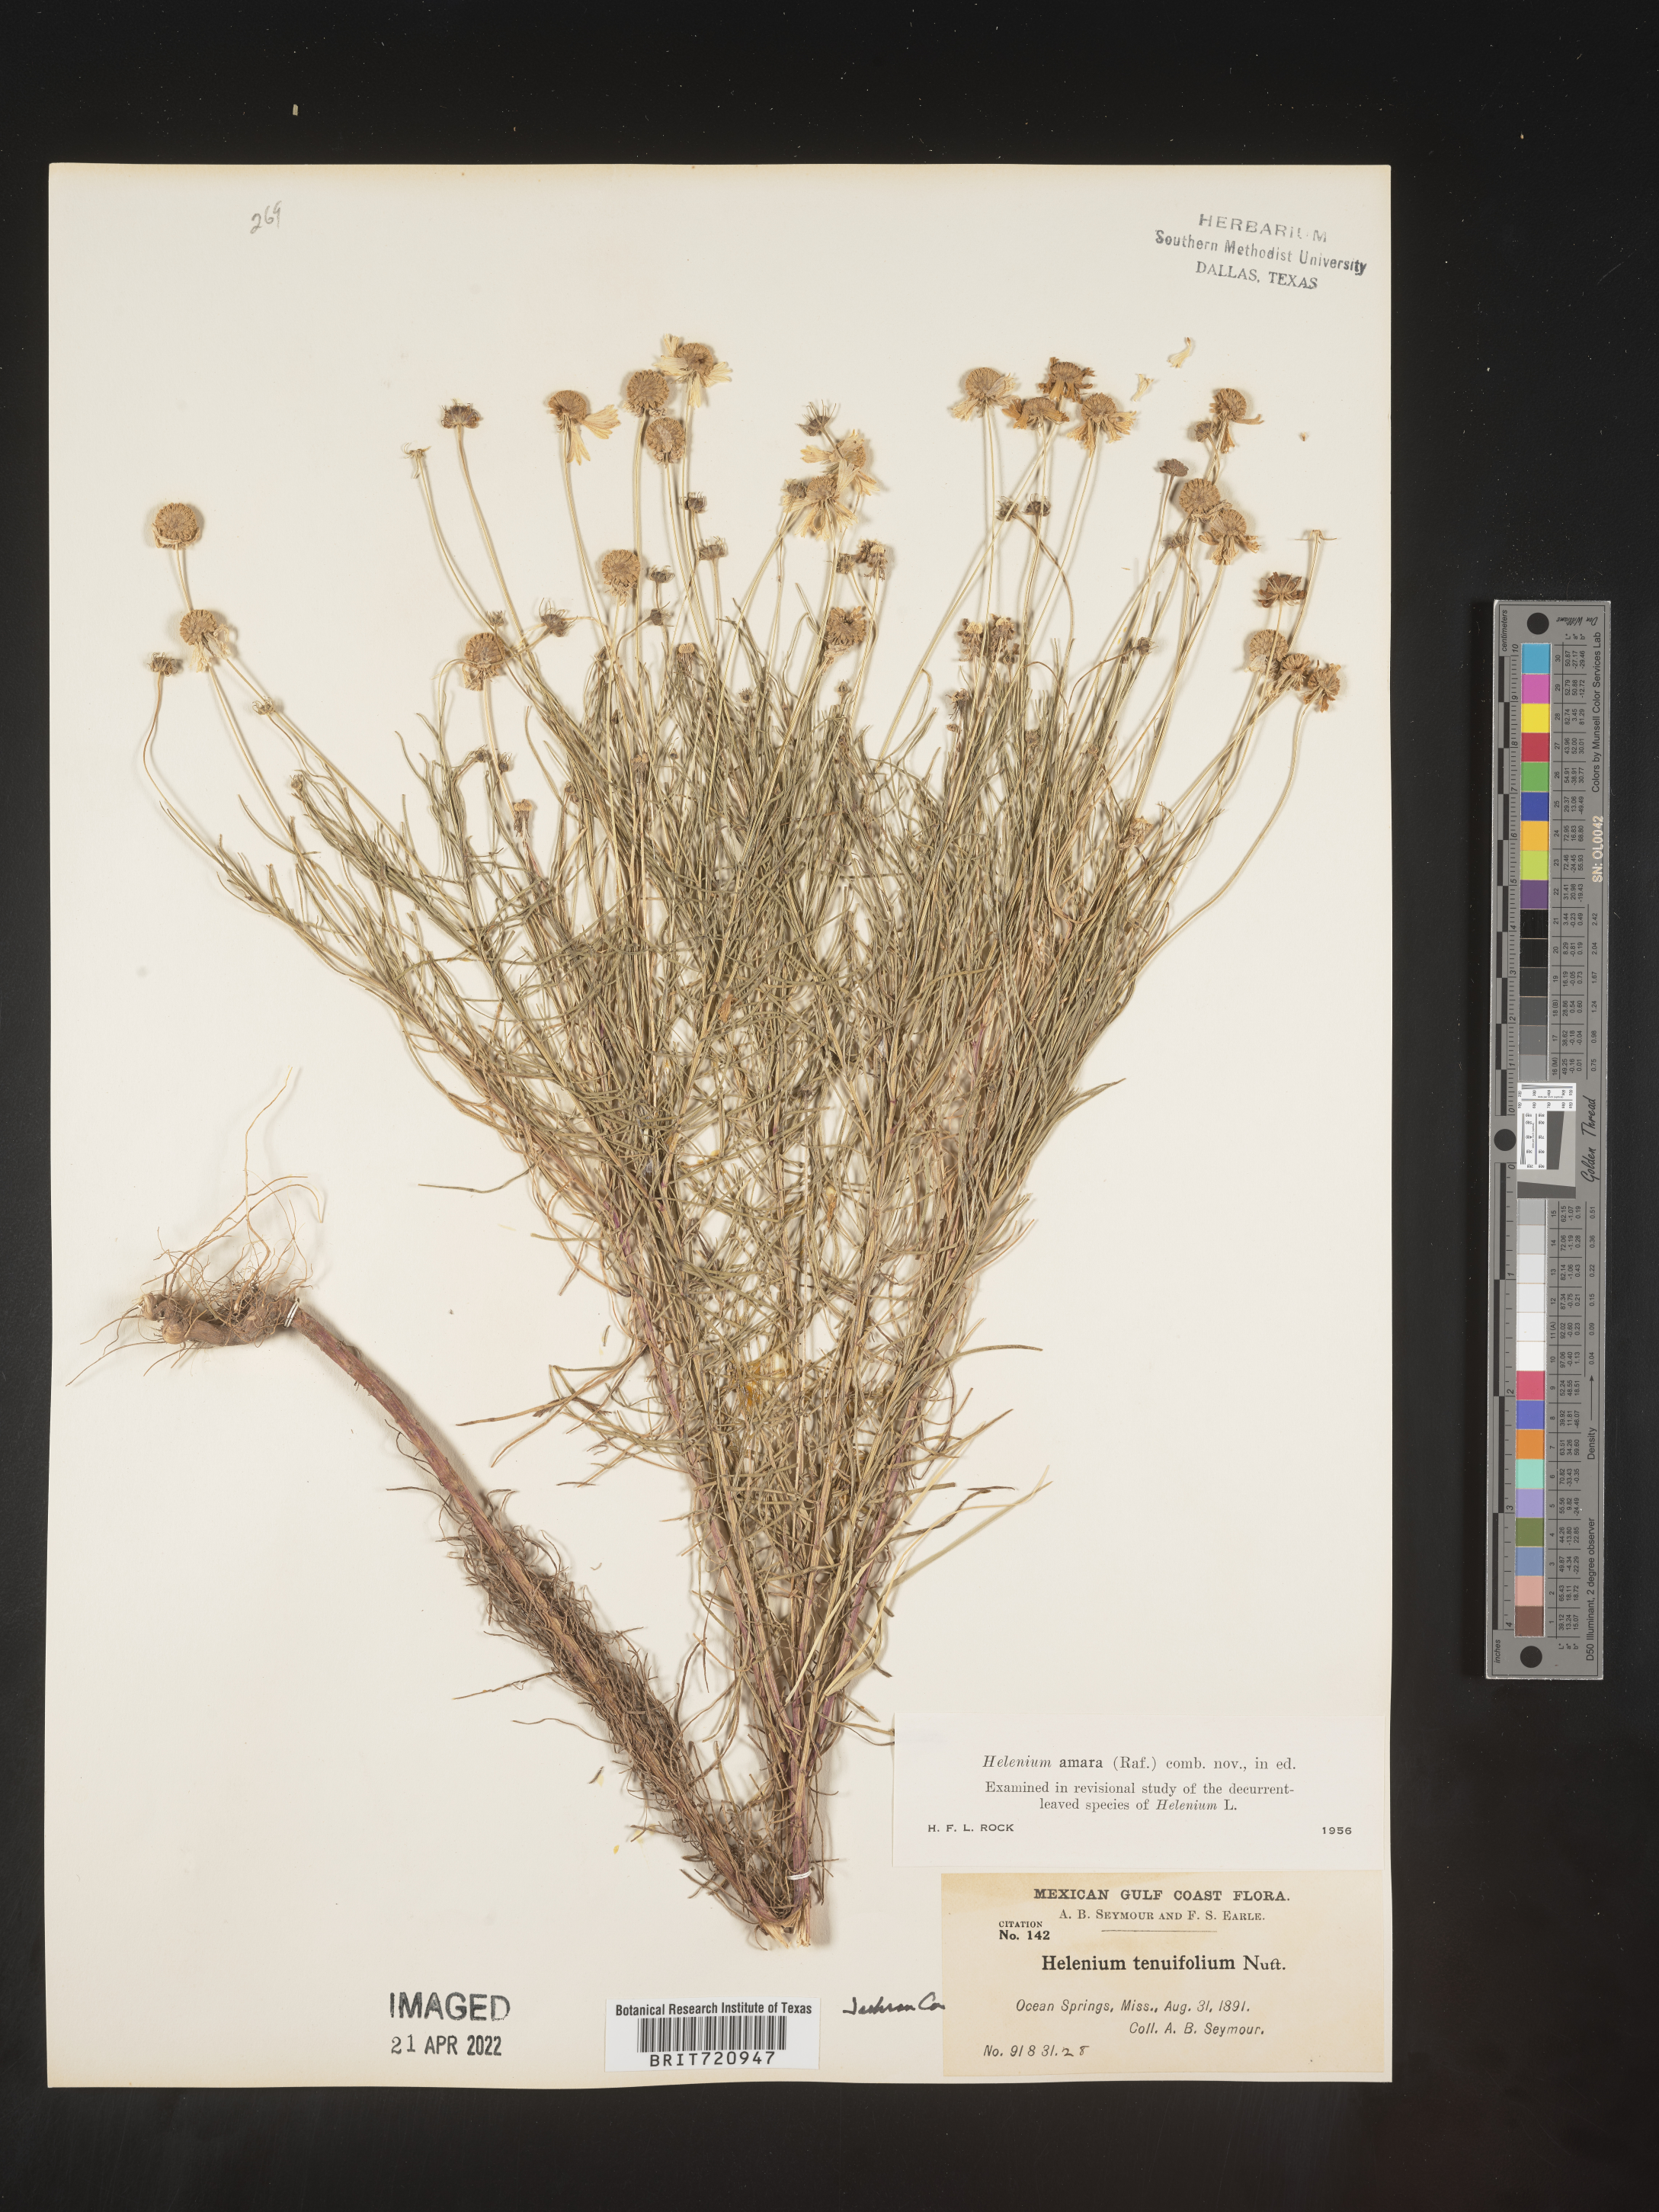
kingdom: Plantae
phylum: Tracheophyta
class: Magnoliopsida
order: Asterales
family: Asteraceae
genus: Helenium
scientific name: Helenium amarum
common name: Bitter sneezeweed
